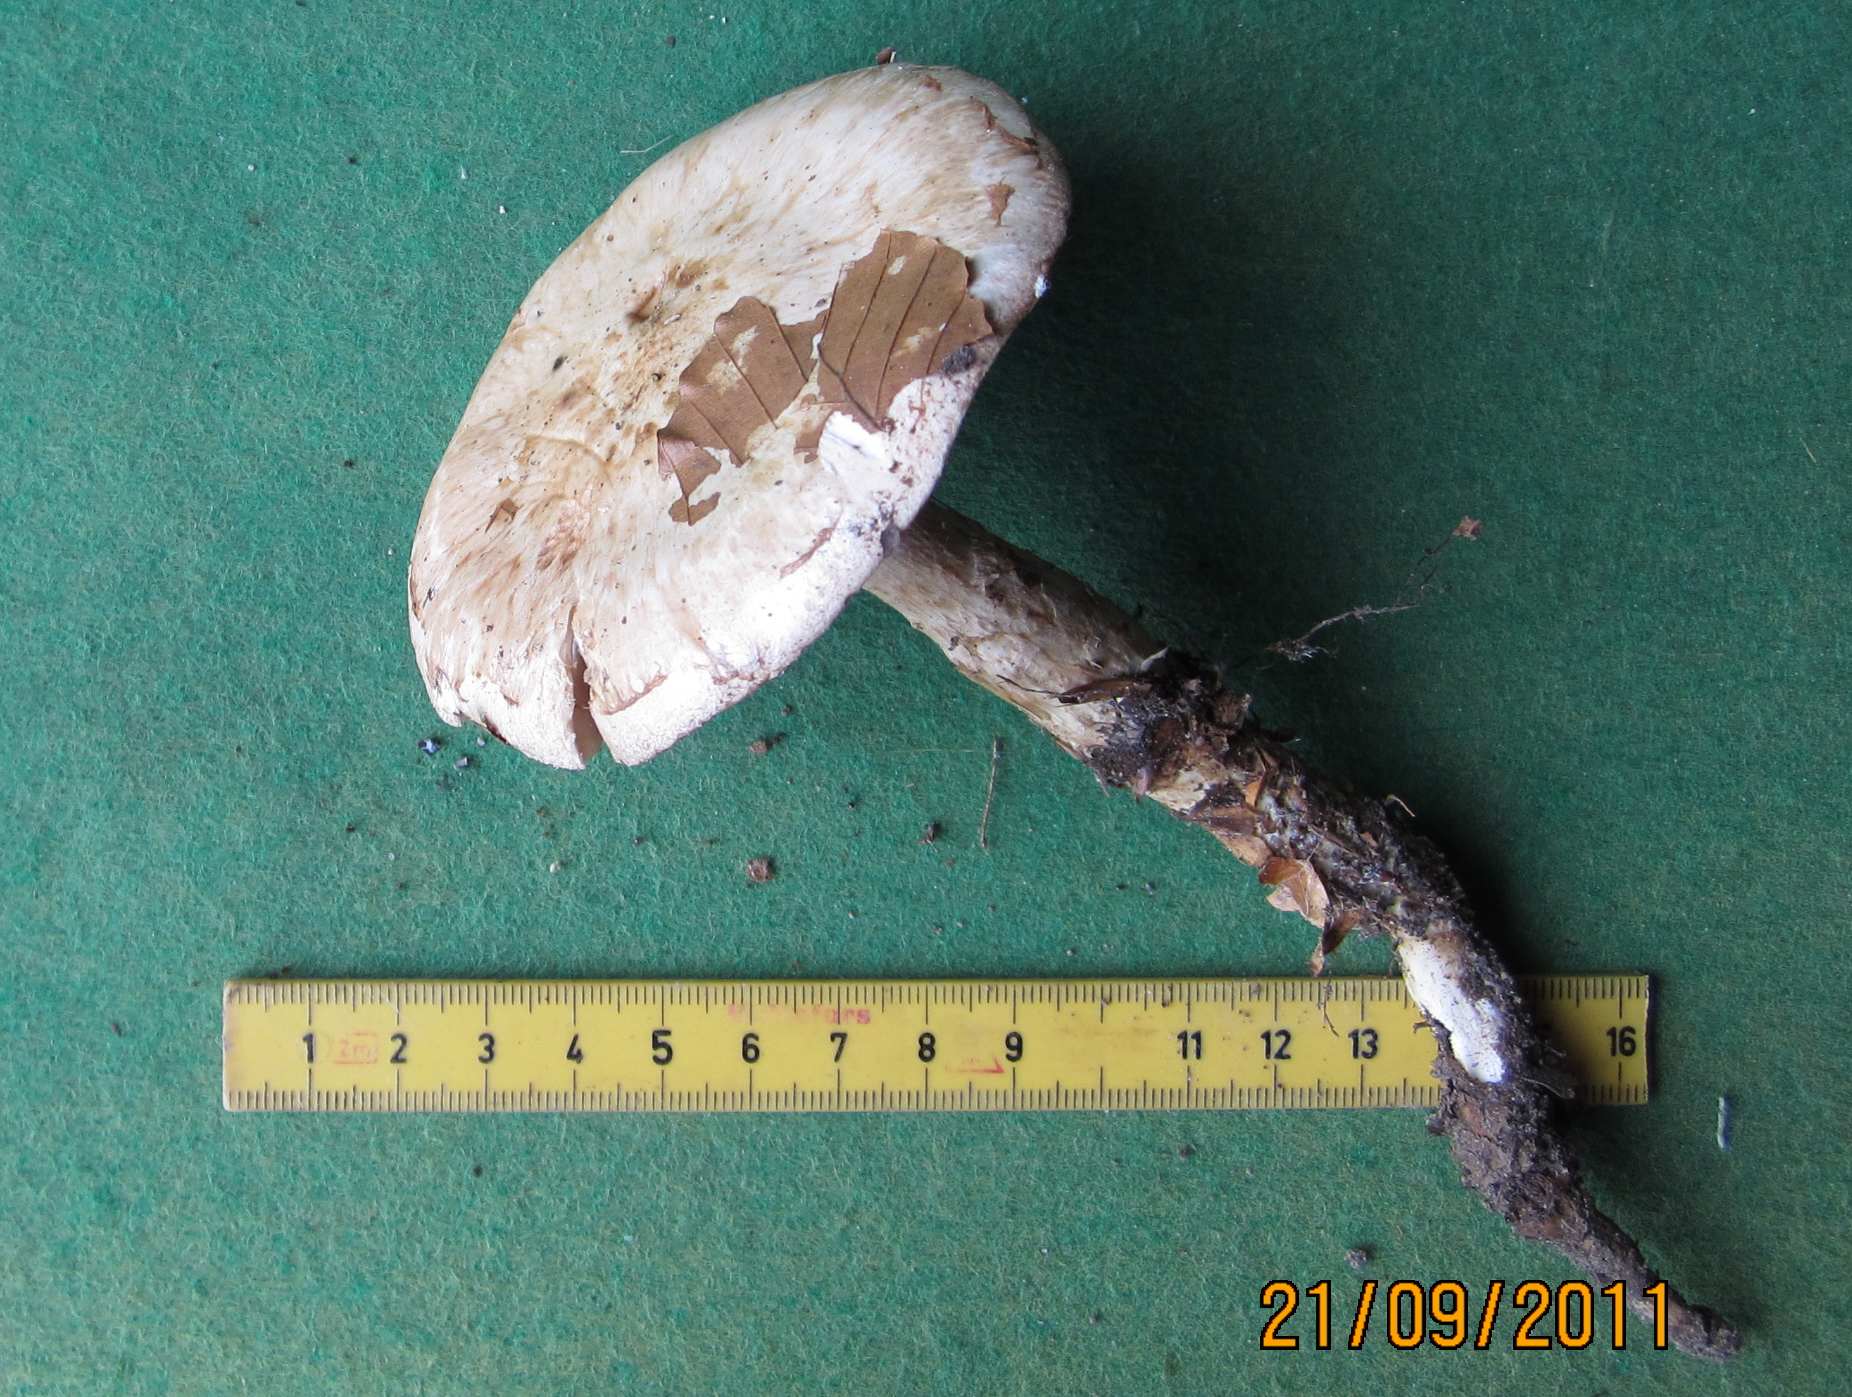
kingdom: Fungi
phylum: Basidiomycota
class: Agaricomycetes
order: Agaricales
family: Hymenogastraceae
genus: Hebeloma
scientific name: Hebeloma radicosum
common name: pælerods-tåreblad
